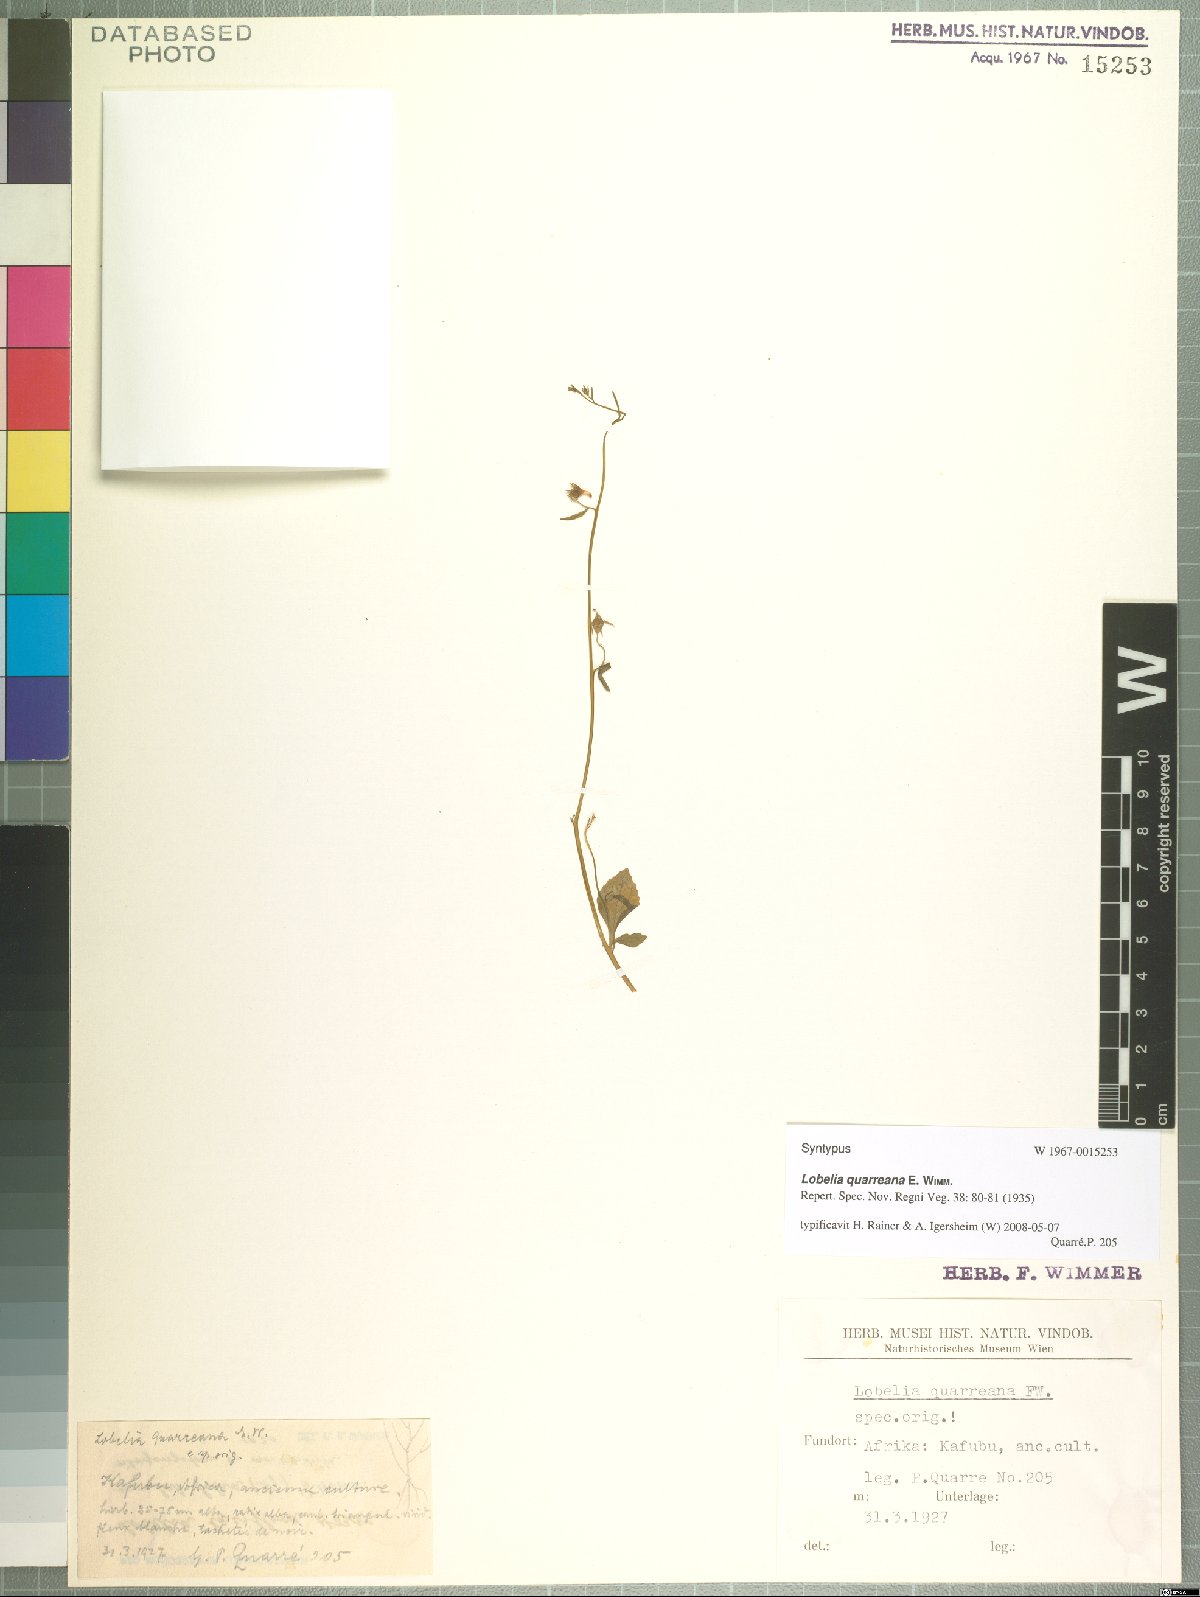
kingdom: Plantae
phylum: Tracheophyta
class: Magnoliopsida
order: Asterales
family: Campanulaceae
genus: Lobelia
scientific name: Lobelia quarreana
